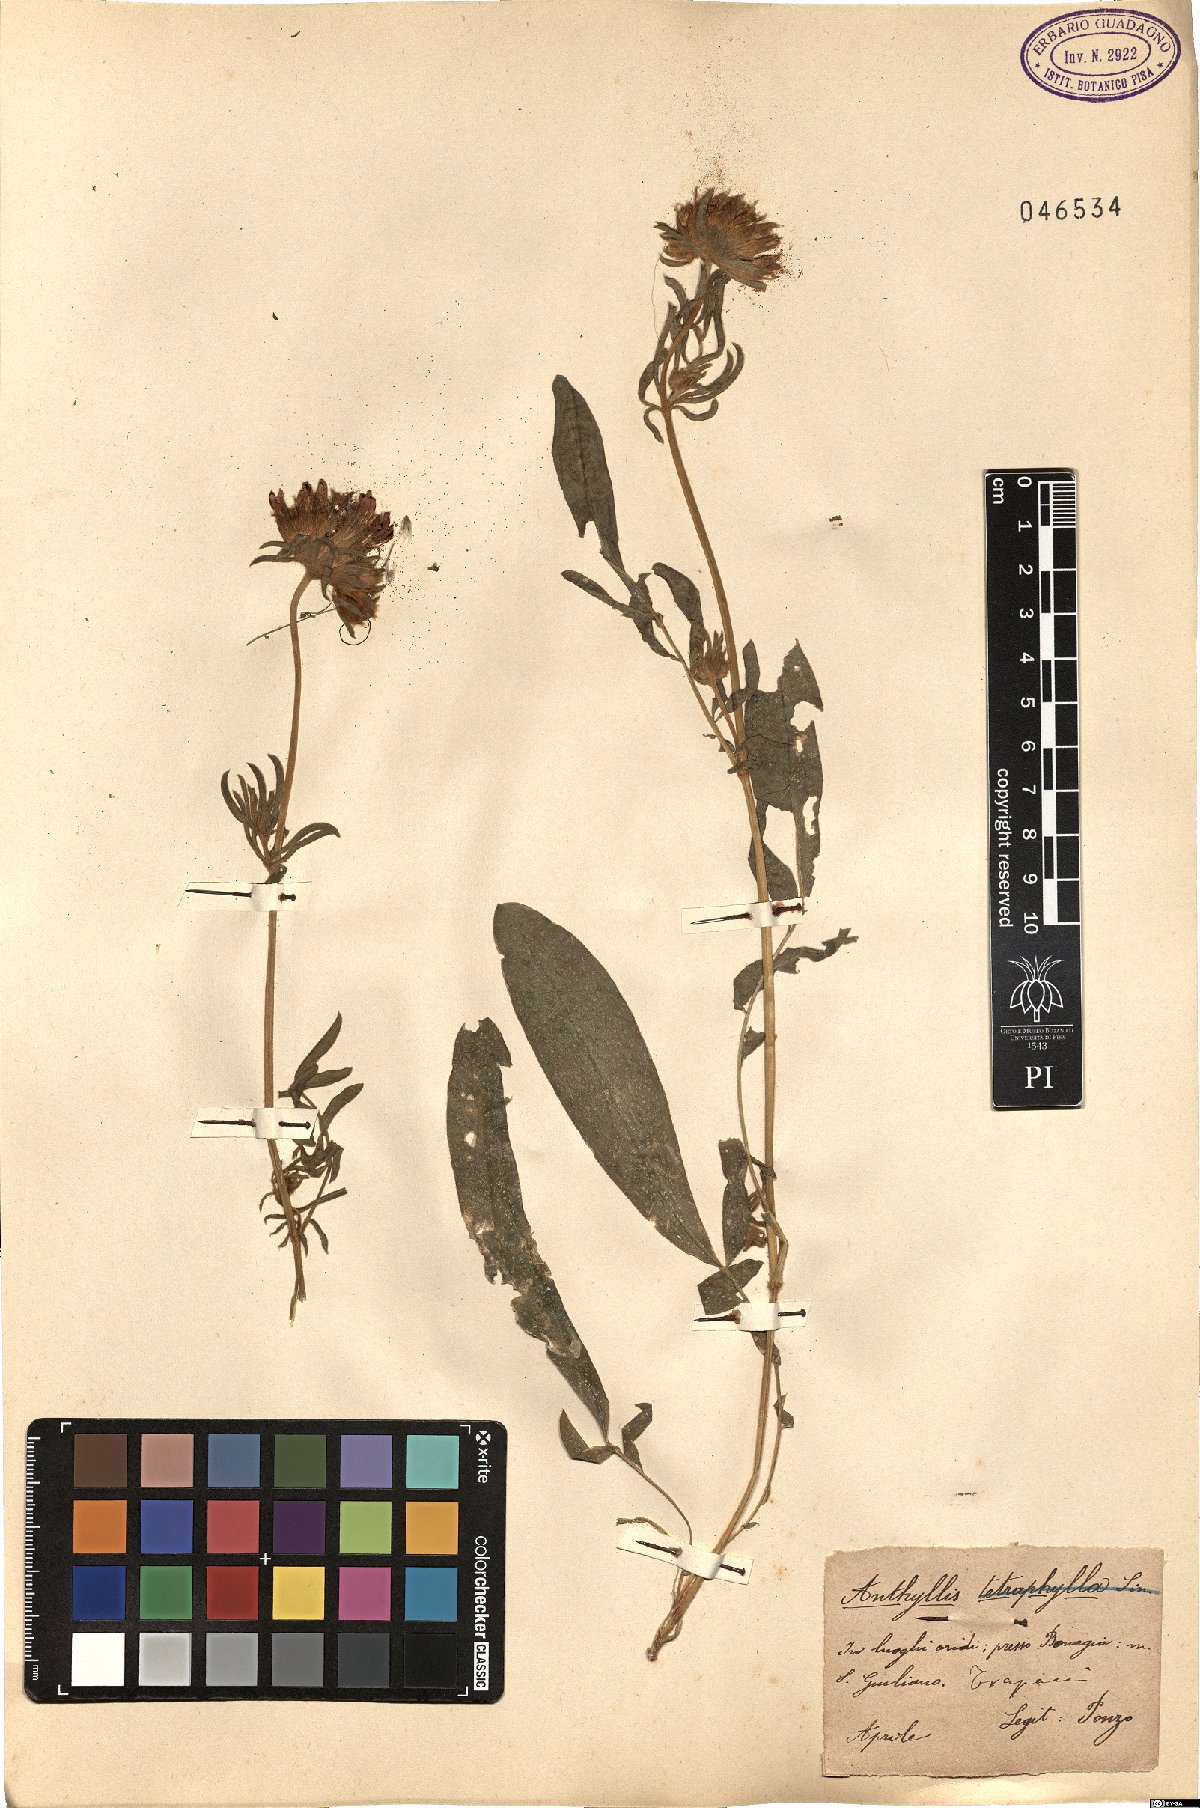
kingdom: Plantae
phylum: Tracheophyta
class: Magnoliopsida
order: Fabales
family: Fabaceae
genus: Tripodion
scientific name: Tripodion tetraphyllum
